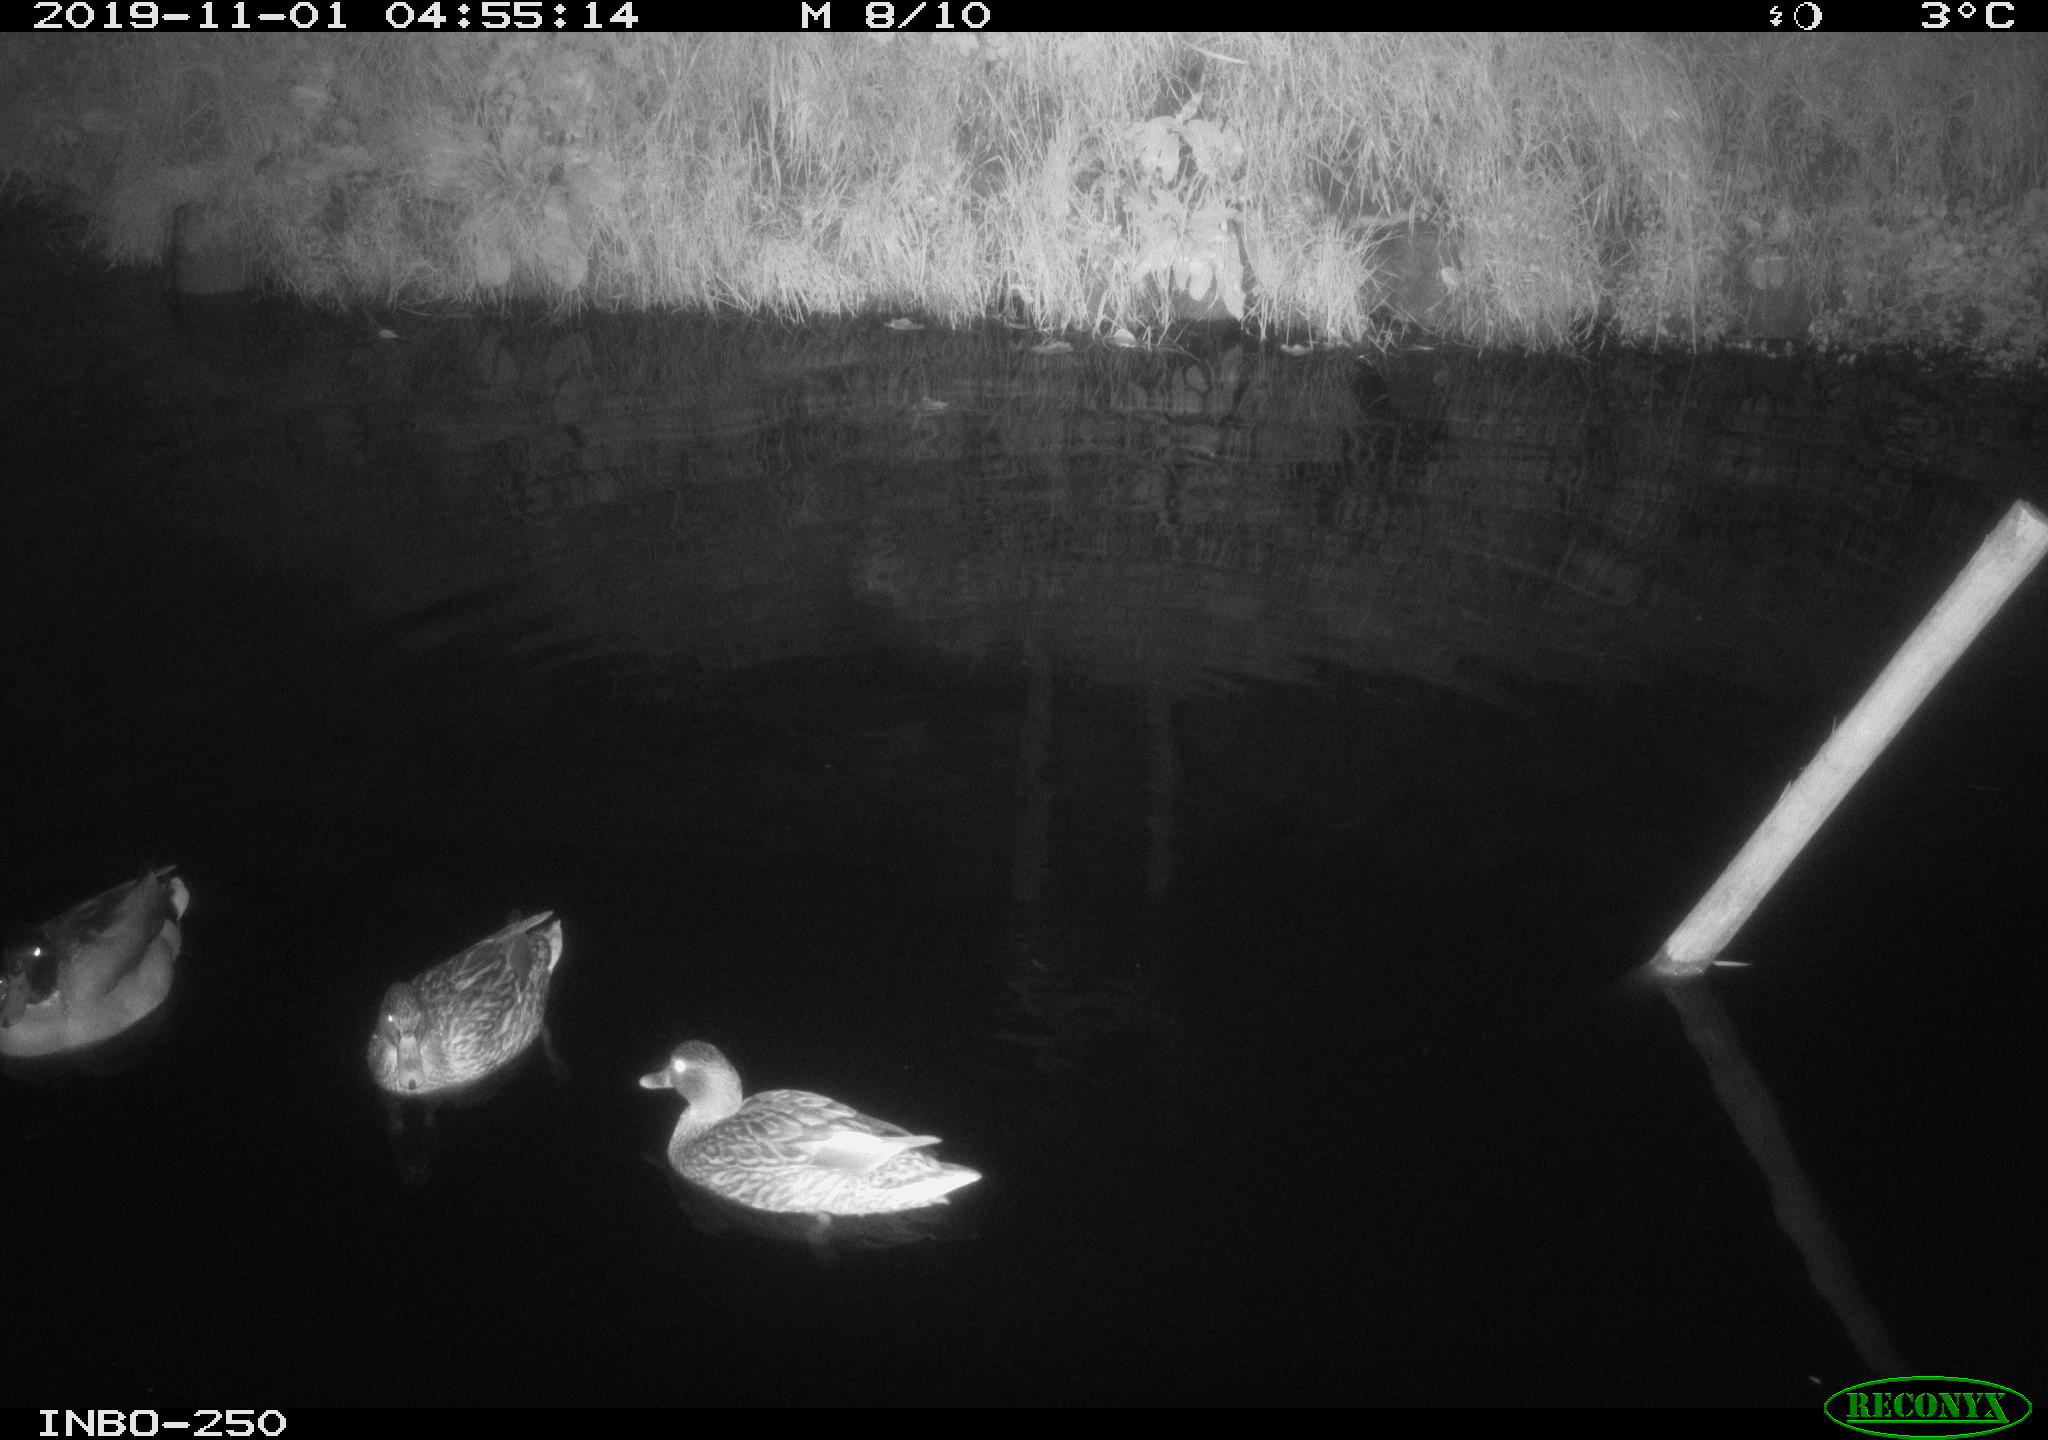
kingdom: Animalia
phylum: Chordata
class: Aves
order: Anseriformes
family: Anatidae
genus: Anas
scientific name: Anas platyrhynchos
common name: Mallard
